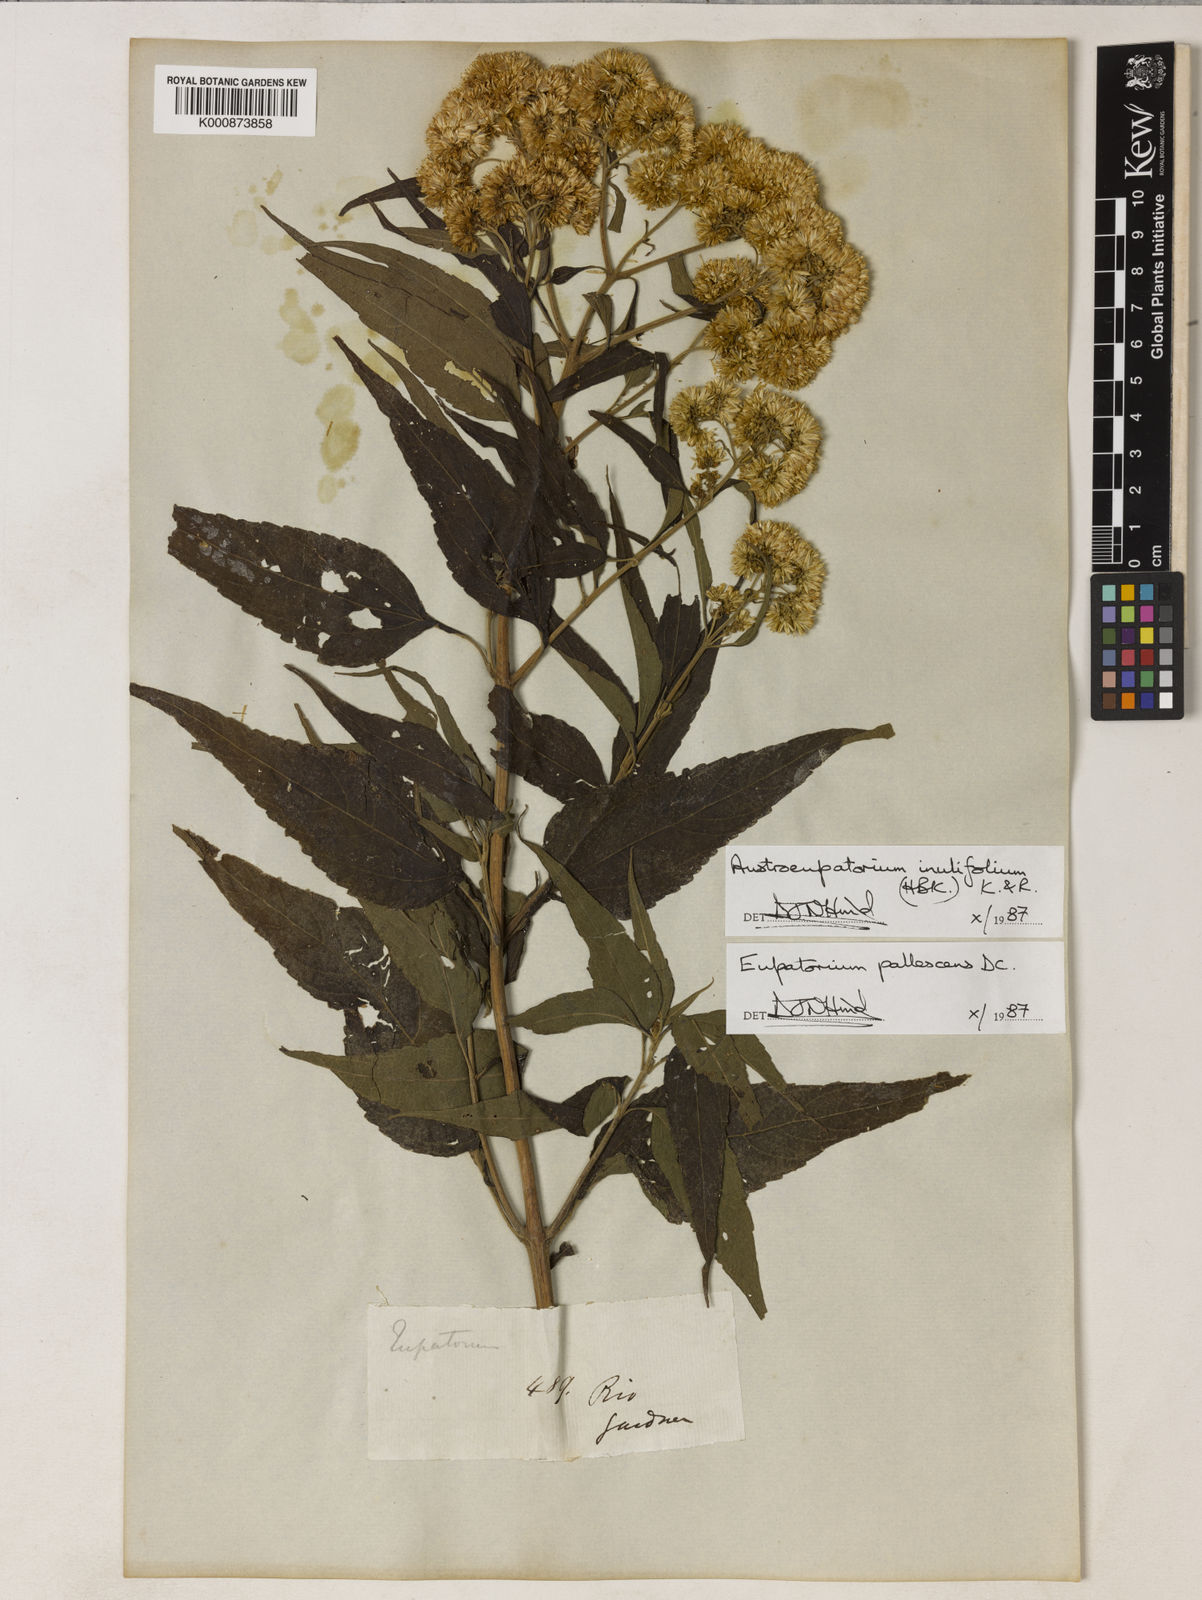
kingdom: Plantae
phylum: Tracheophyta
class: Magnoliopsida
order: Asterales
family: Asteraceae
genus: Austroeupatorium
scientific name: Austroeupatorium inulifolium
